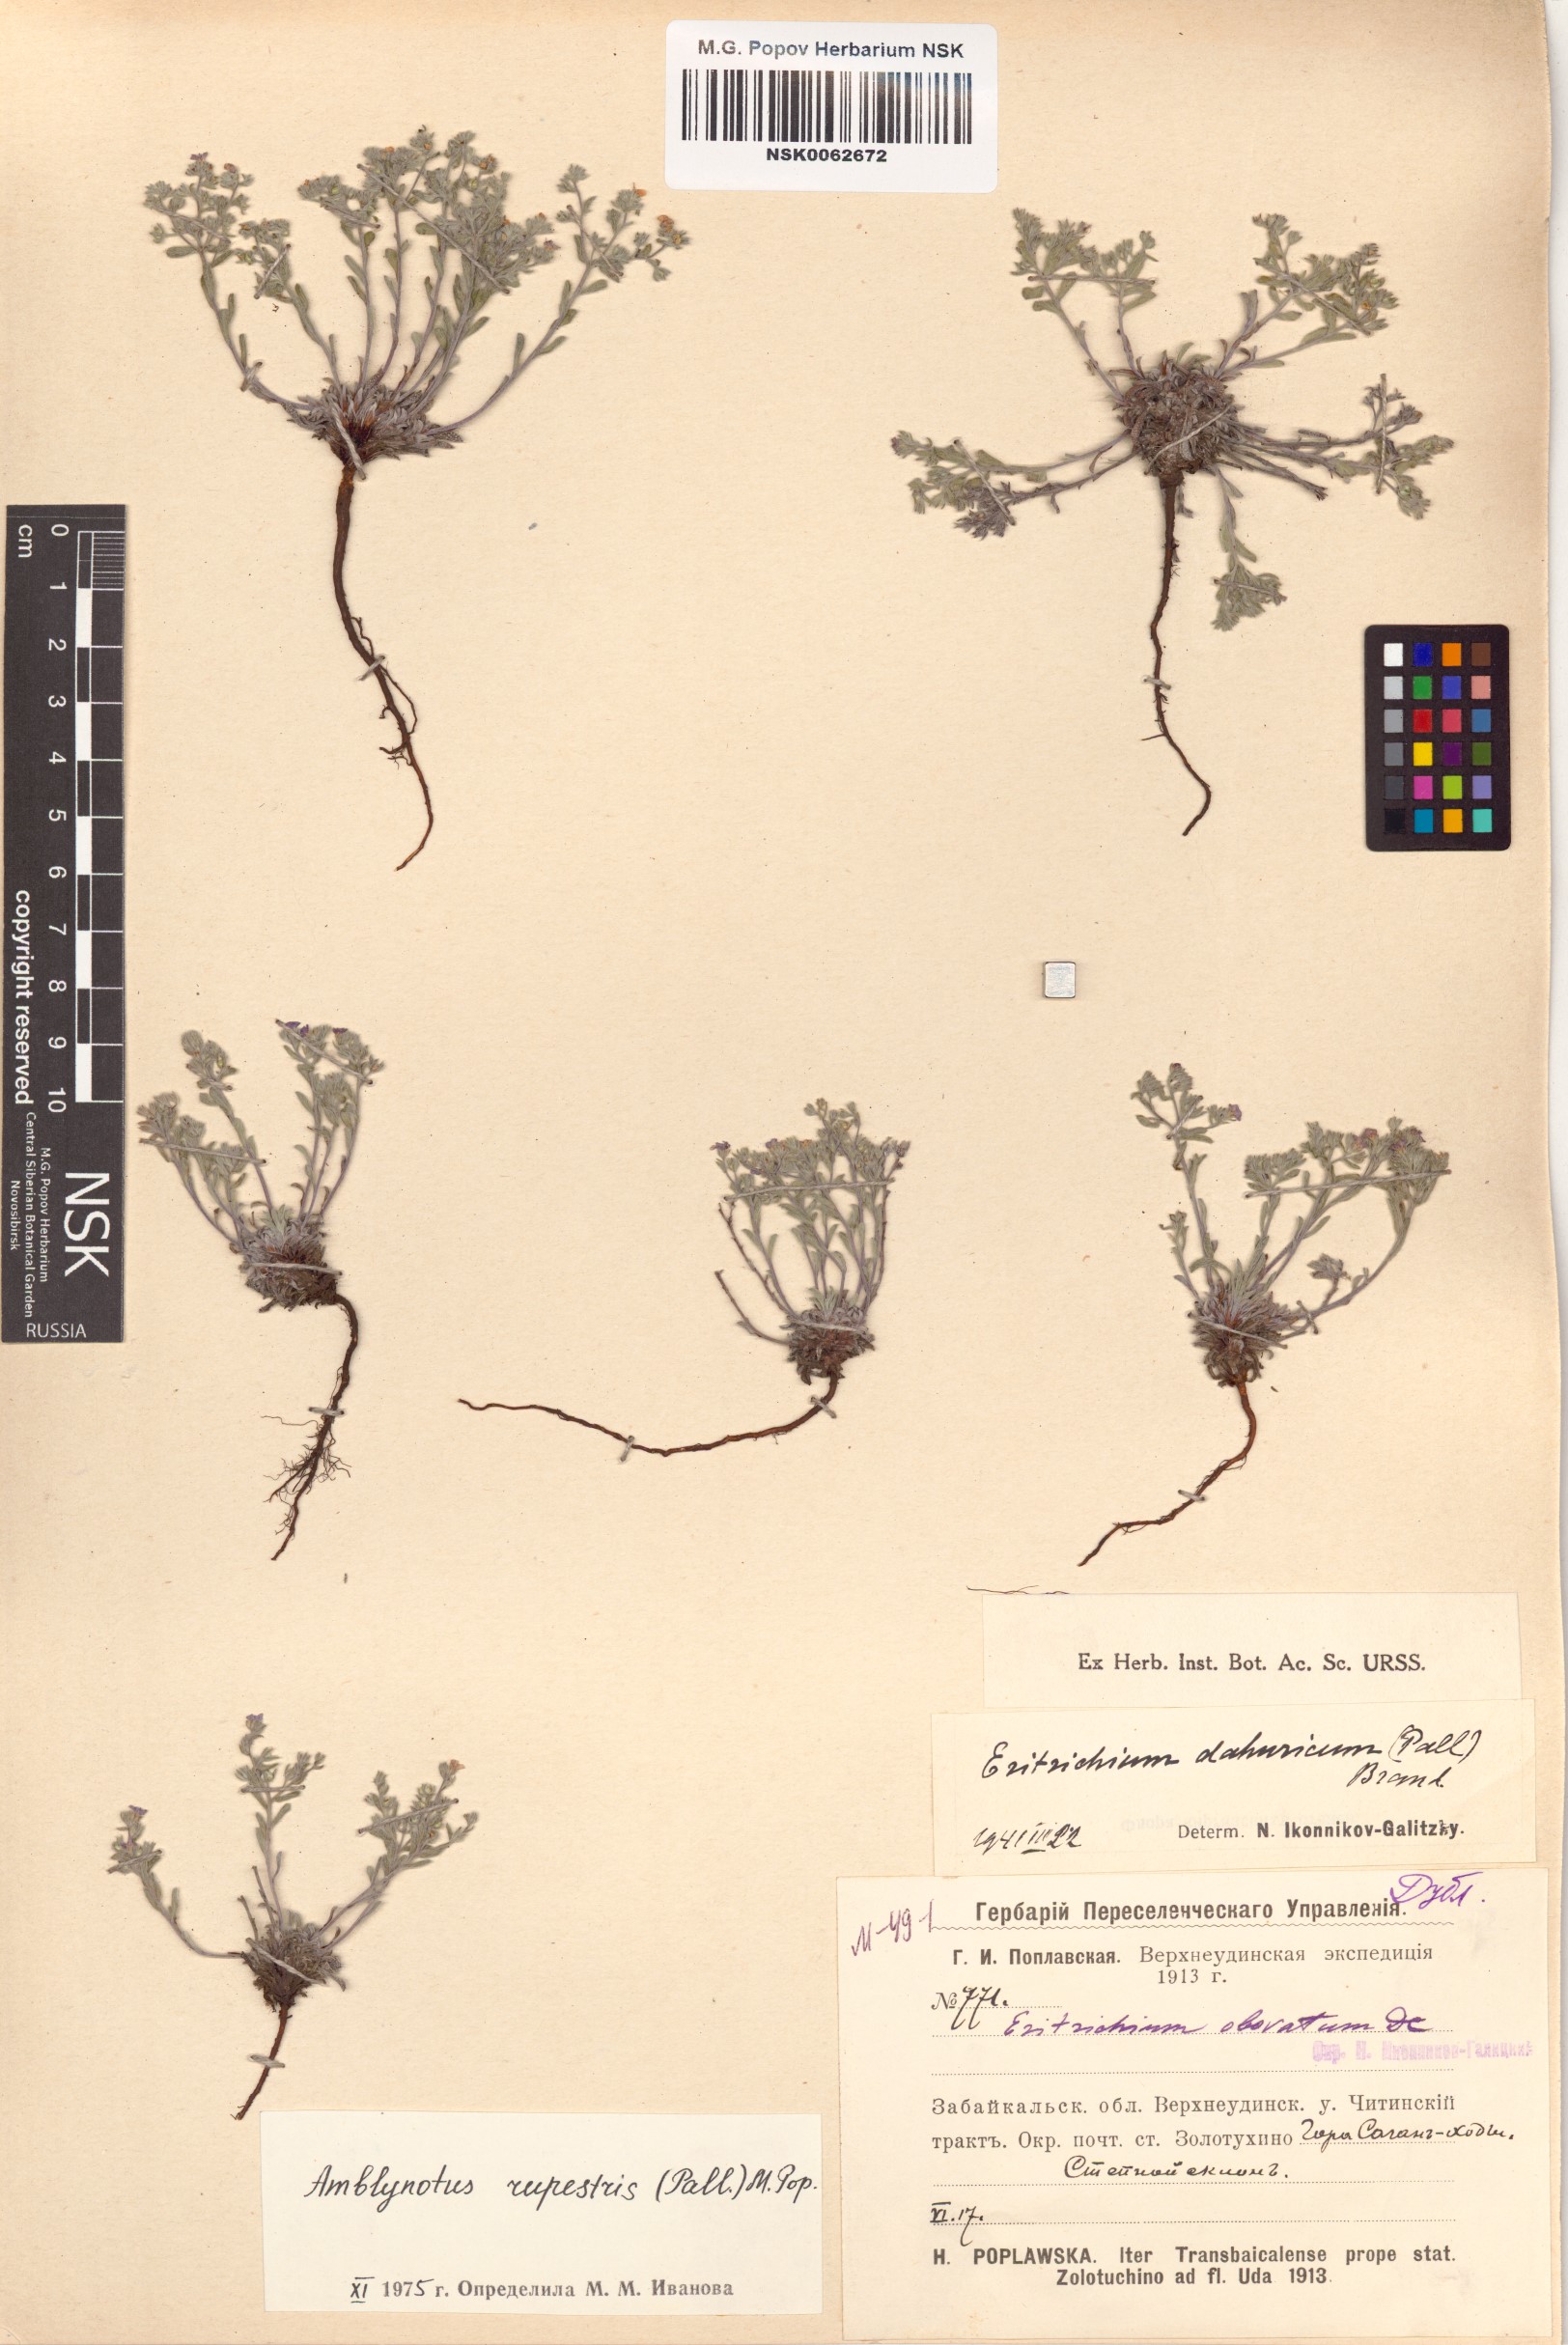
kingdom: Plantae
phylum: Tracheophyta
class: Magnoliopsida
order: Boraginales
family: Boraginaceae
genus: Eritrichium
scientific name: Eritrichium rupestre
